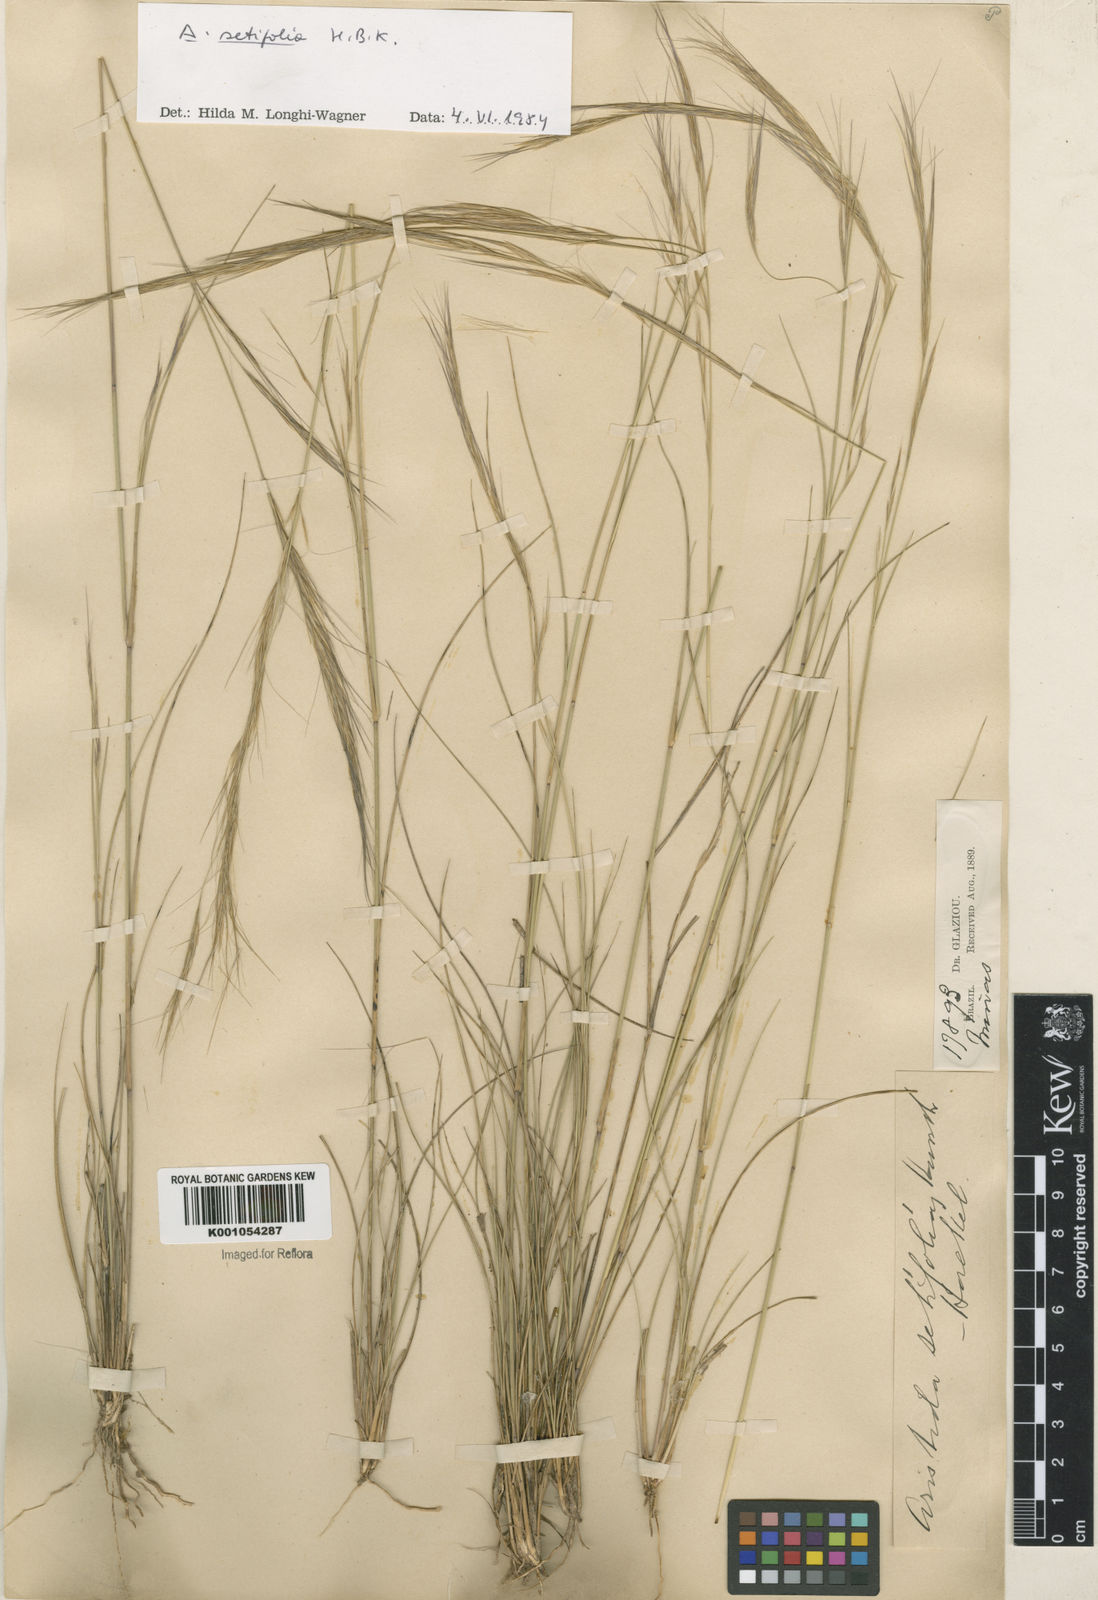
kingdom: Plantae
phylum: Tracheophyta
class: Liliopsida
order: Poales
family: Poaceae
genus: Aristida
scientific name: Aristida setifolia
